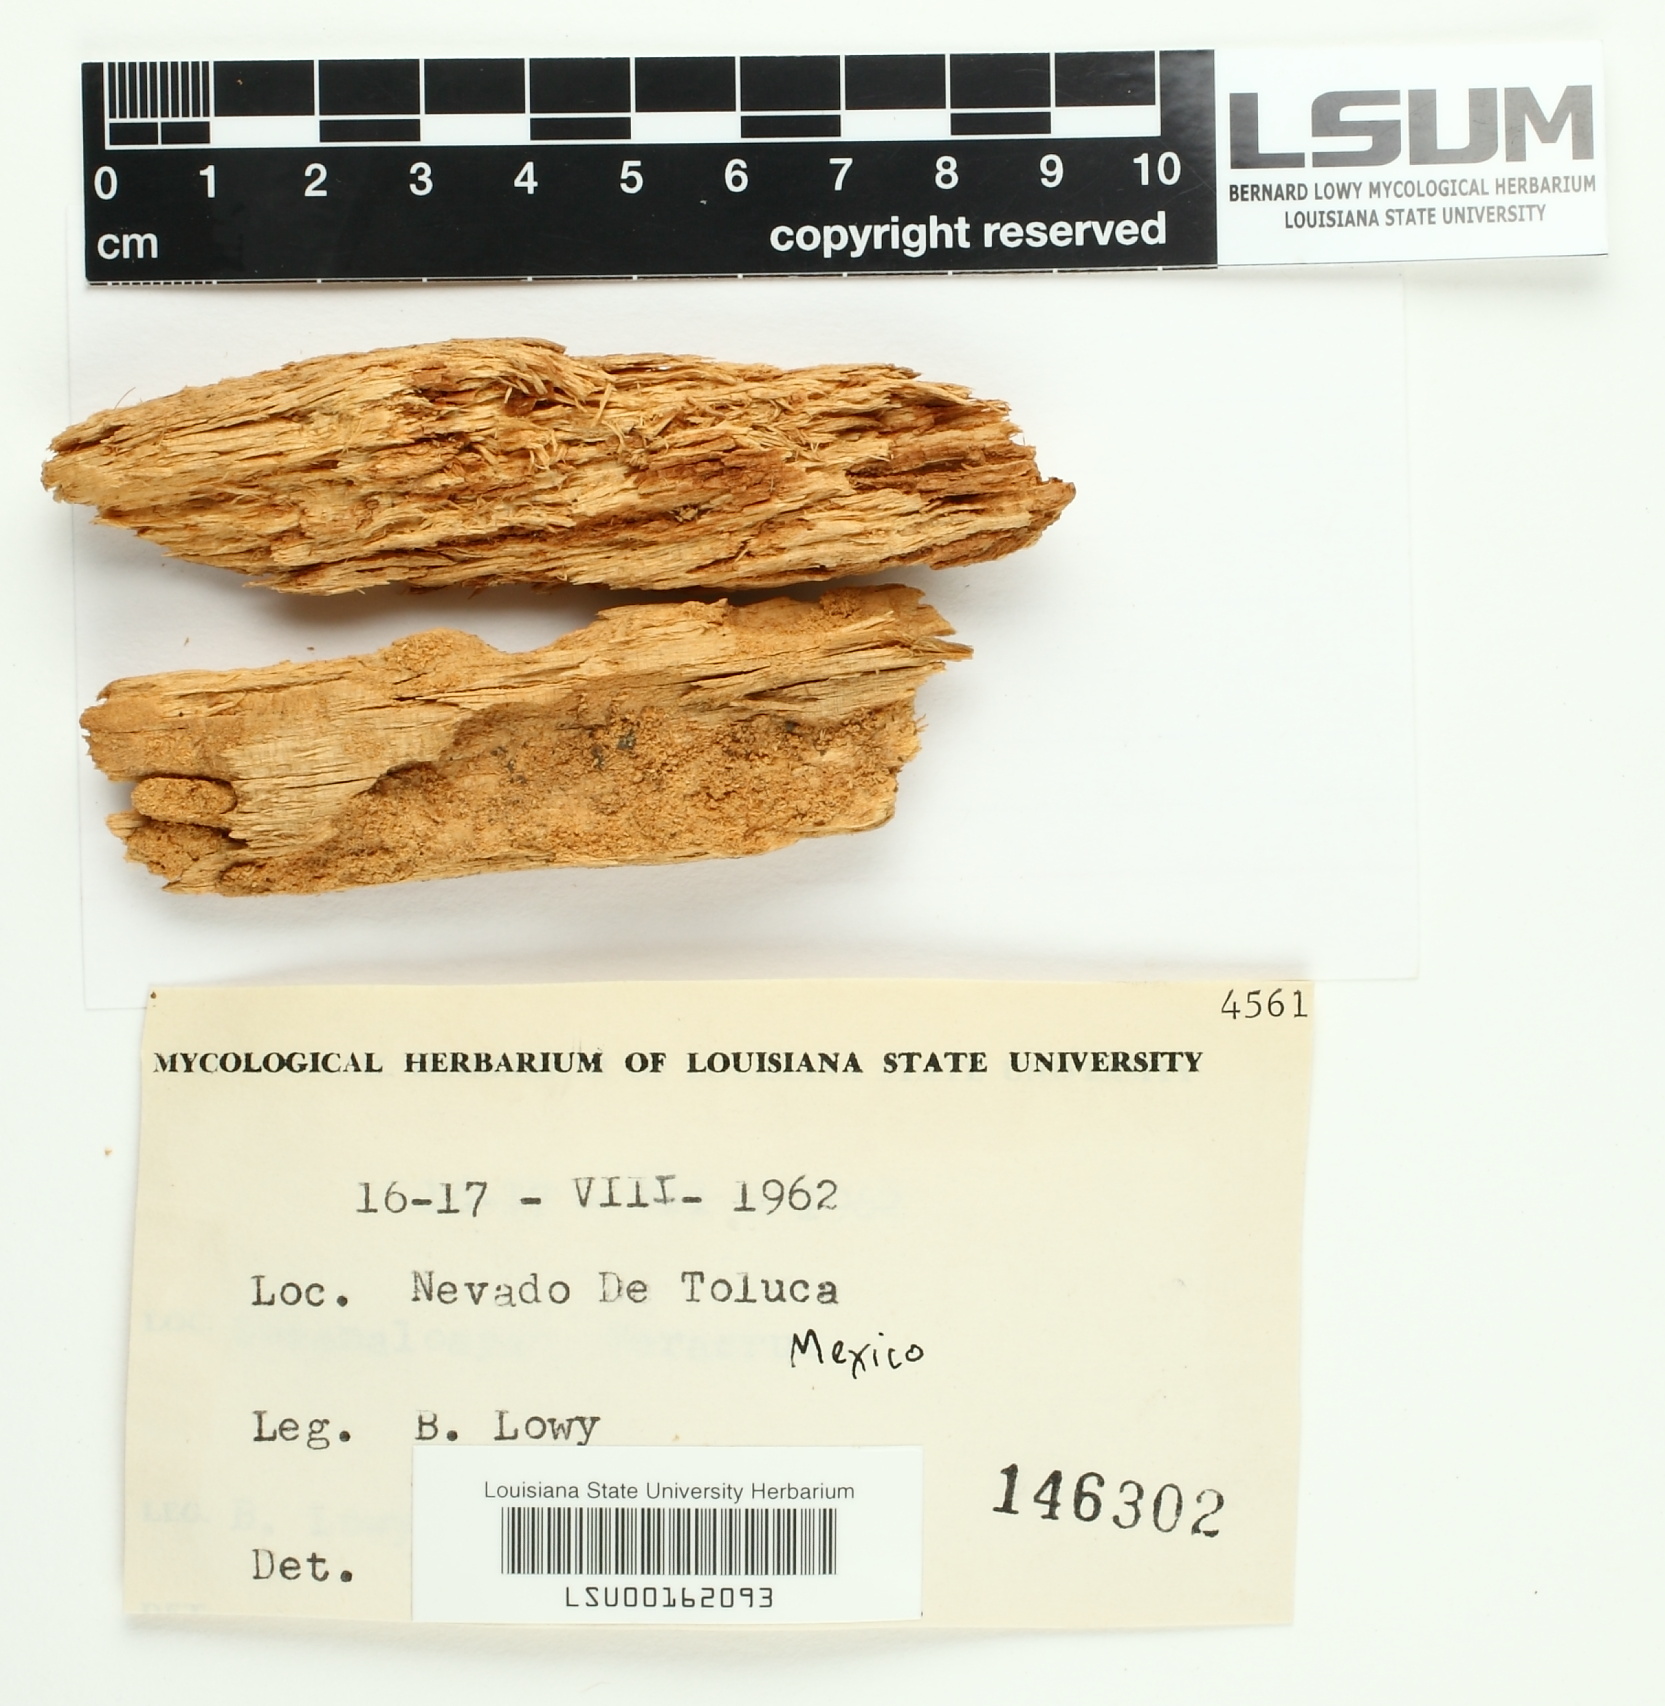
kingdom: Fungi
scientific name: Fungi
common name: Fungi
